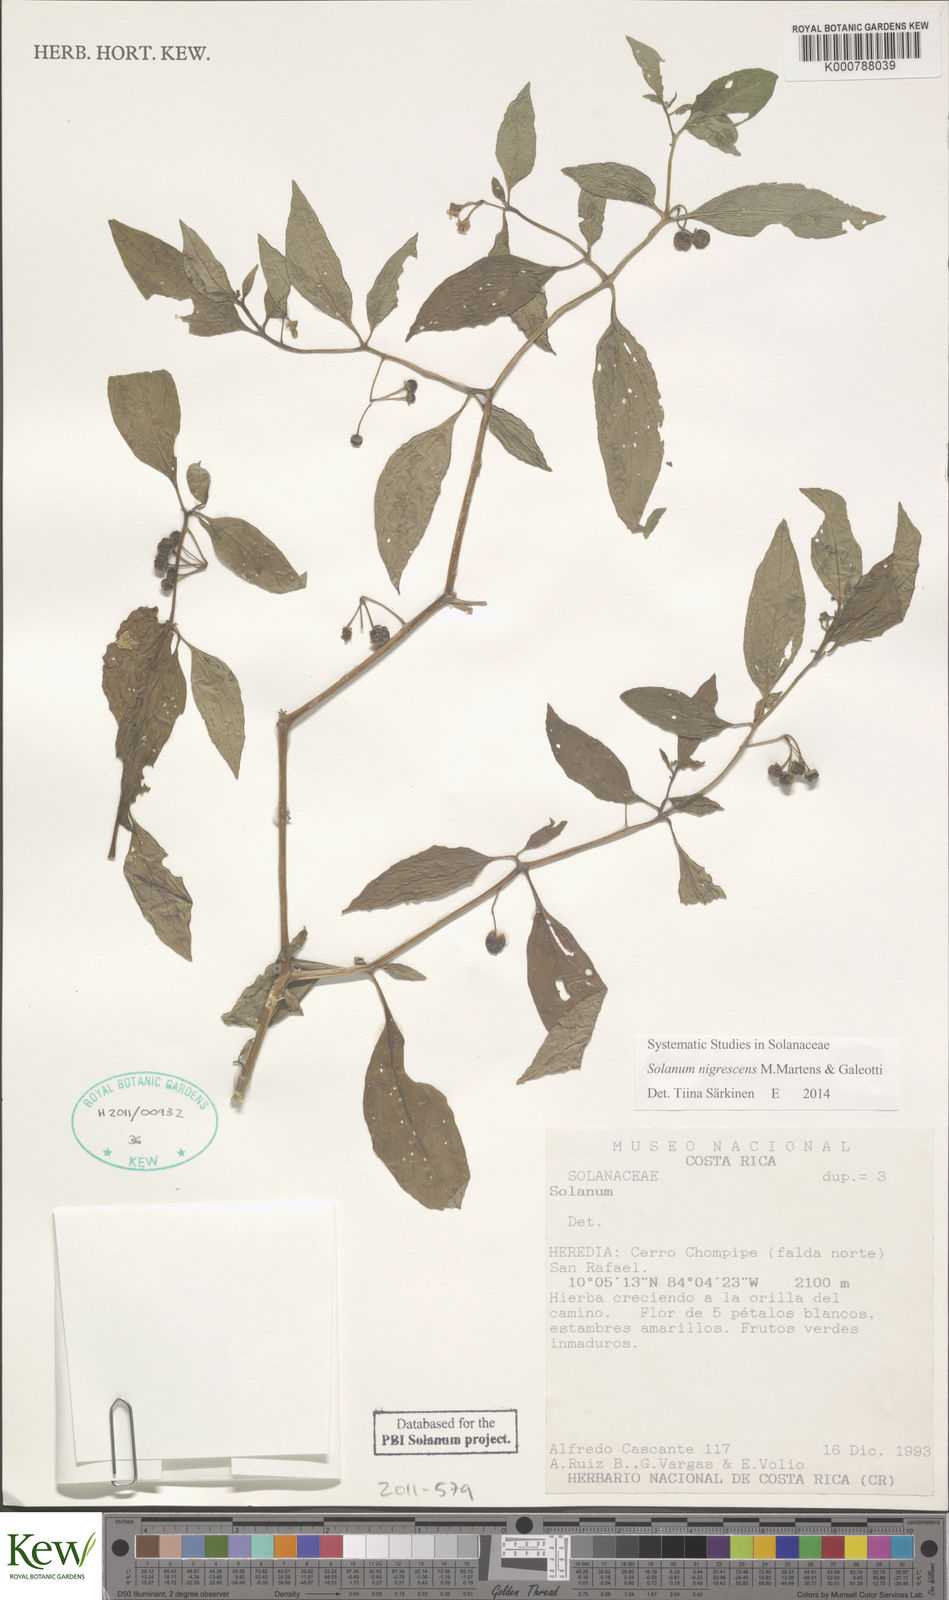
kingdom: Plantae
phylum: Tracheophyta
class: Magnoliopsida
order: Solanales
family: Solanaceae
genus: Solanum
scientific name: Solanum macrotonum
